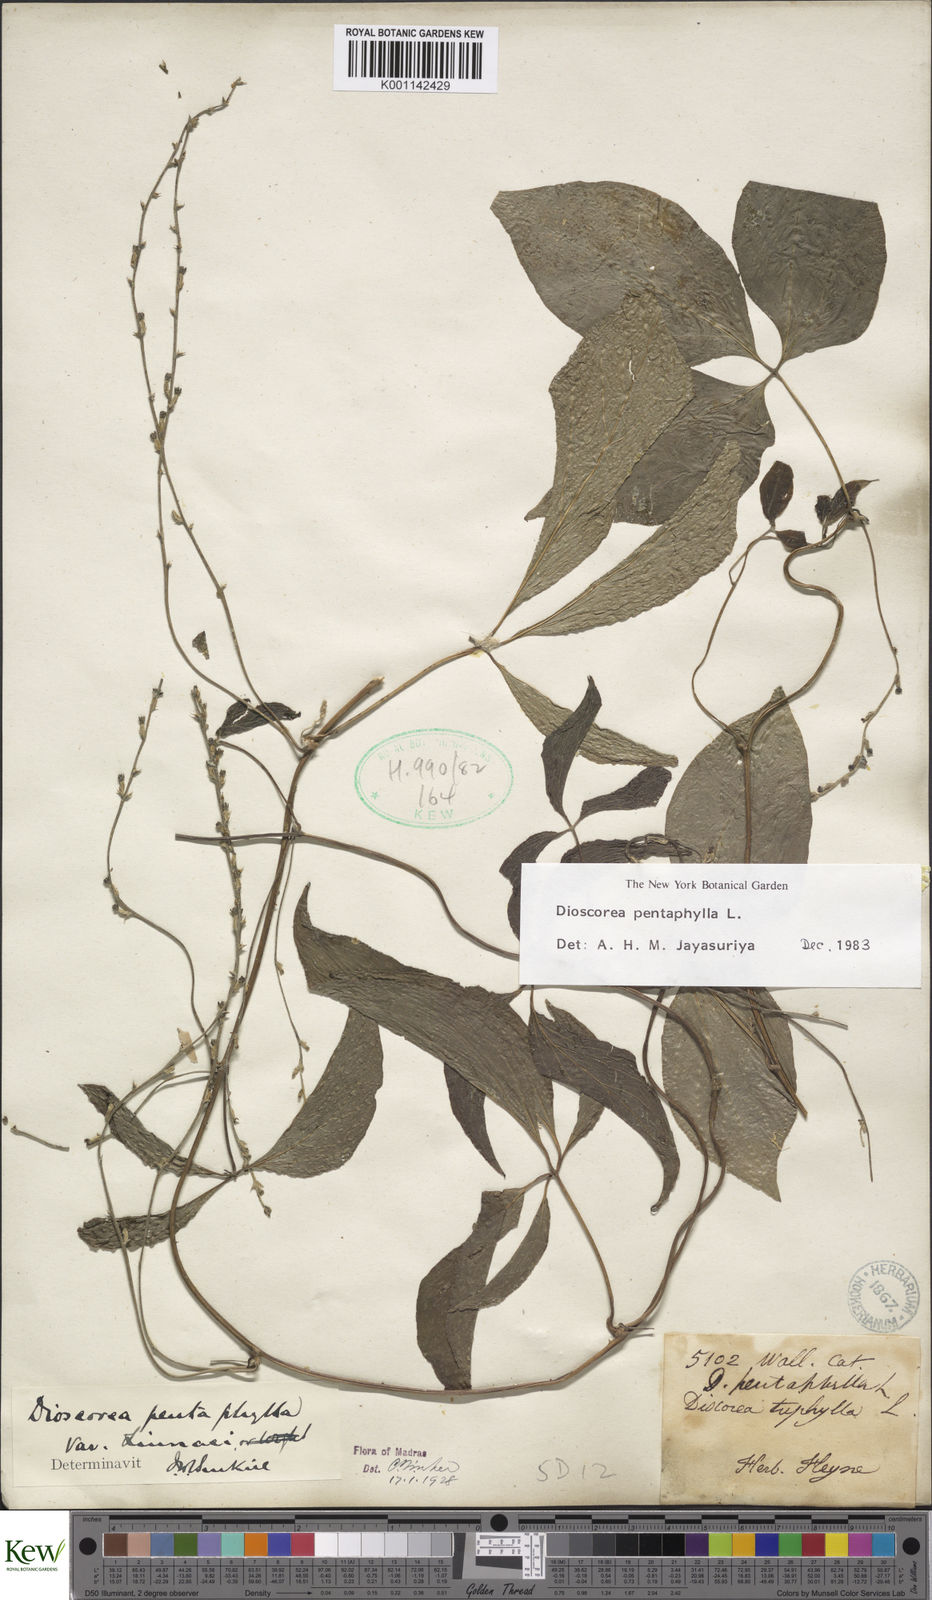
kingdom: Plantae
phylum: Tracheophyta
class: Liliopsida
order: Dioscoreales
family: Dioscoreaceae
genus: Dioscorea
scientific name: Dioscorea pentaphylla
